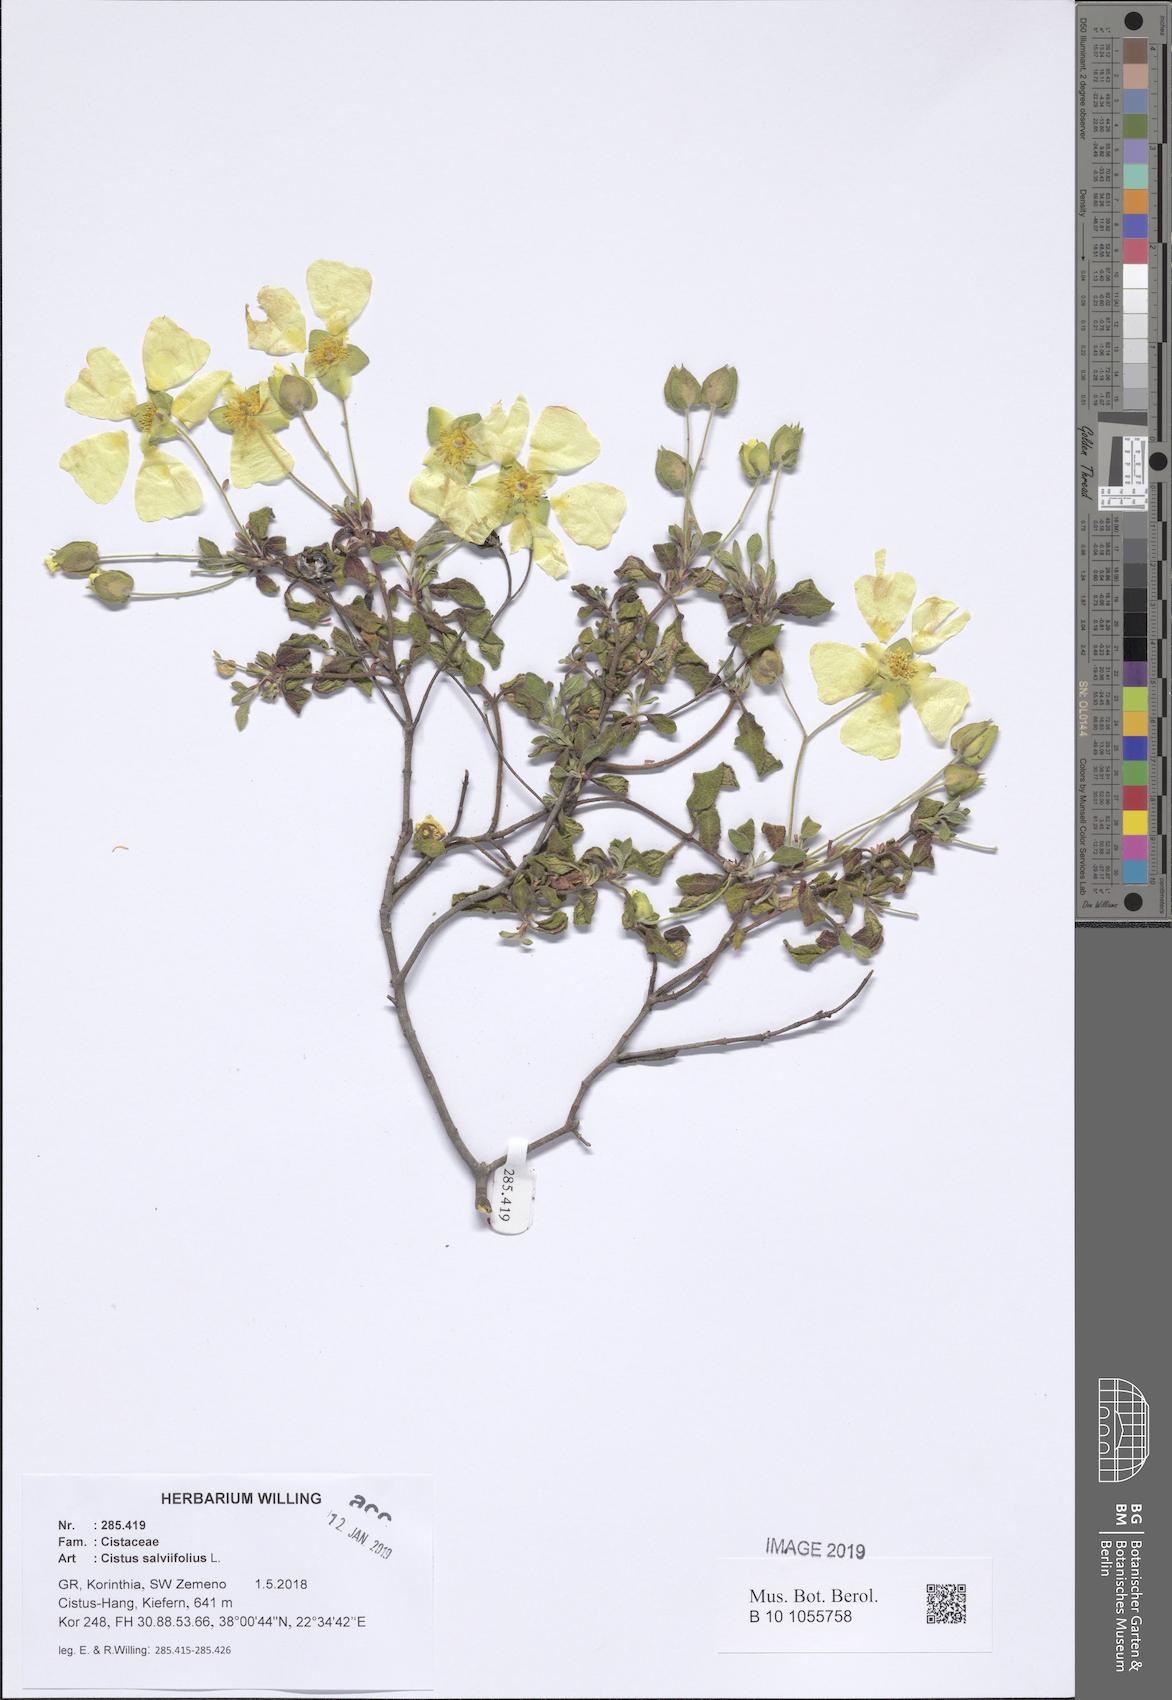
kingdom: Plantae
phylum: Tracheophyta
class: Magnoliopsida
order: Malvales
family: Cistaceae
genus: Cistus
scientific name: Cistus salviifolius
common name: Salvia cistus
